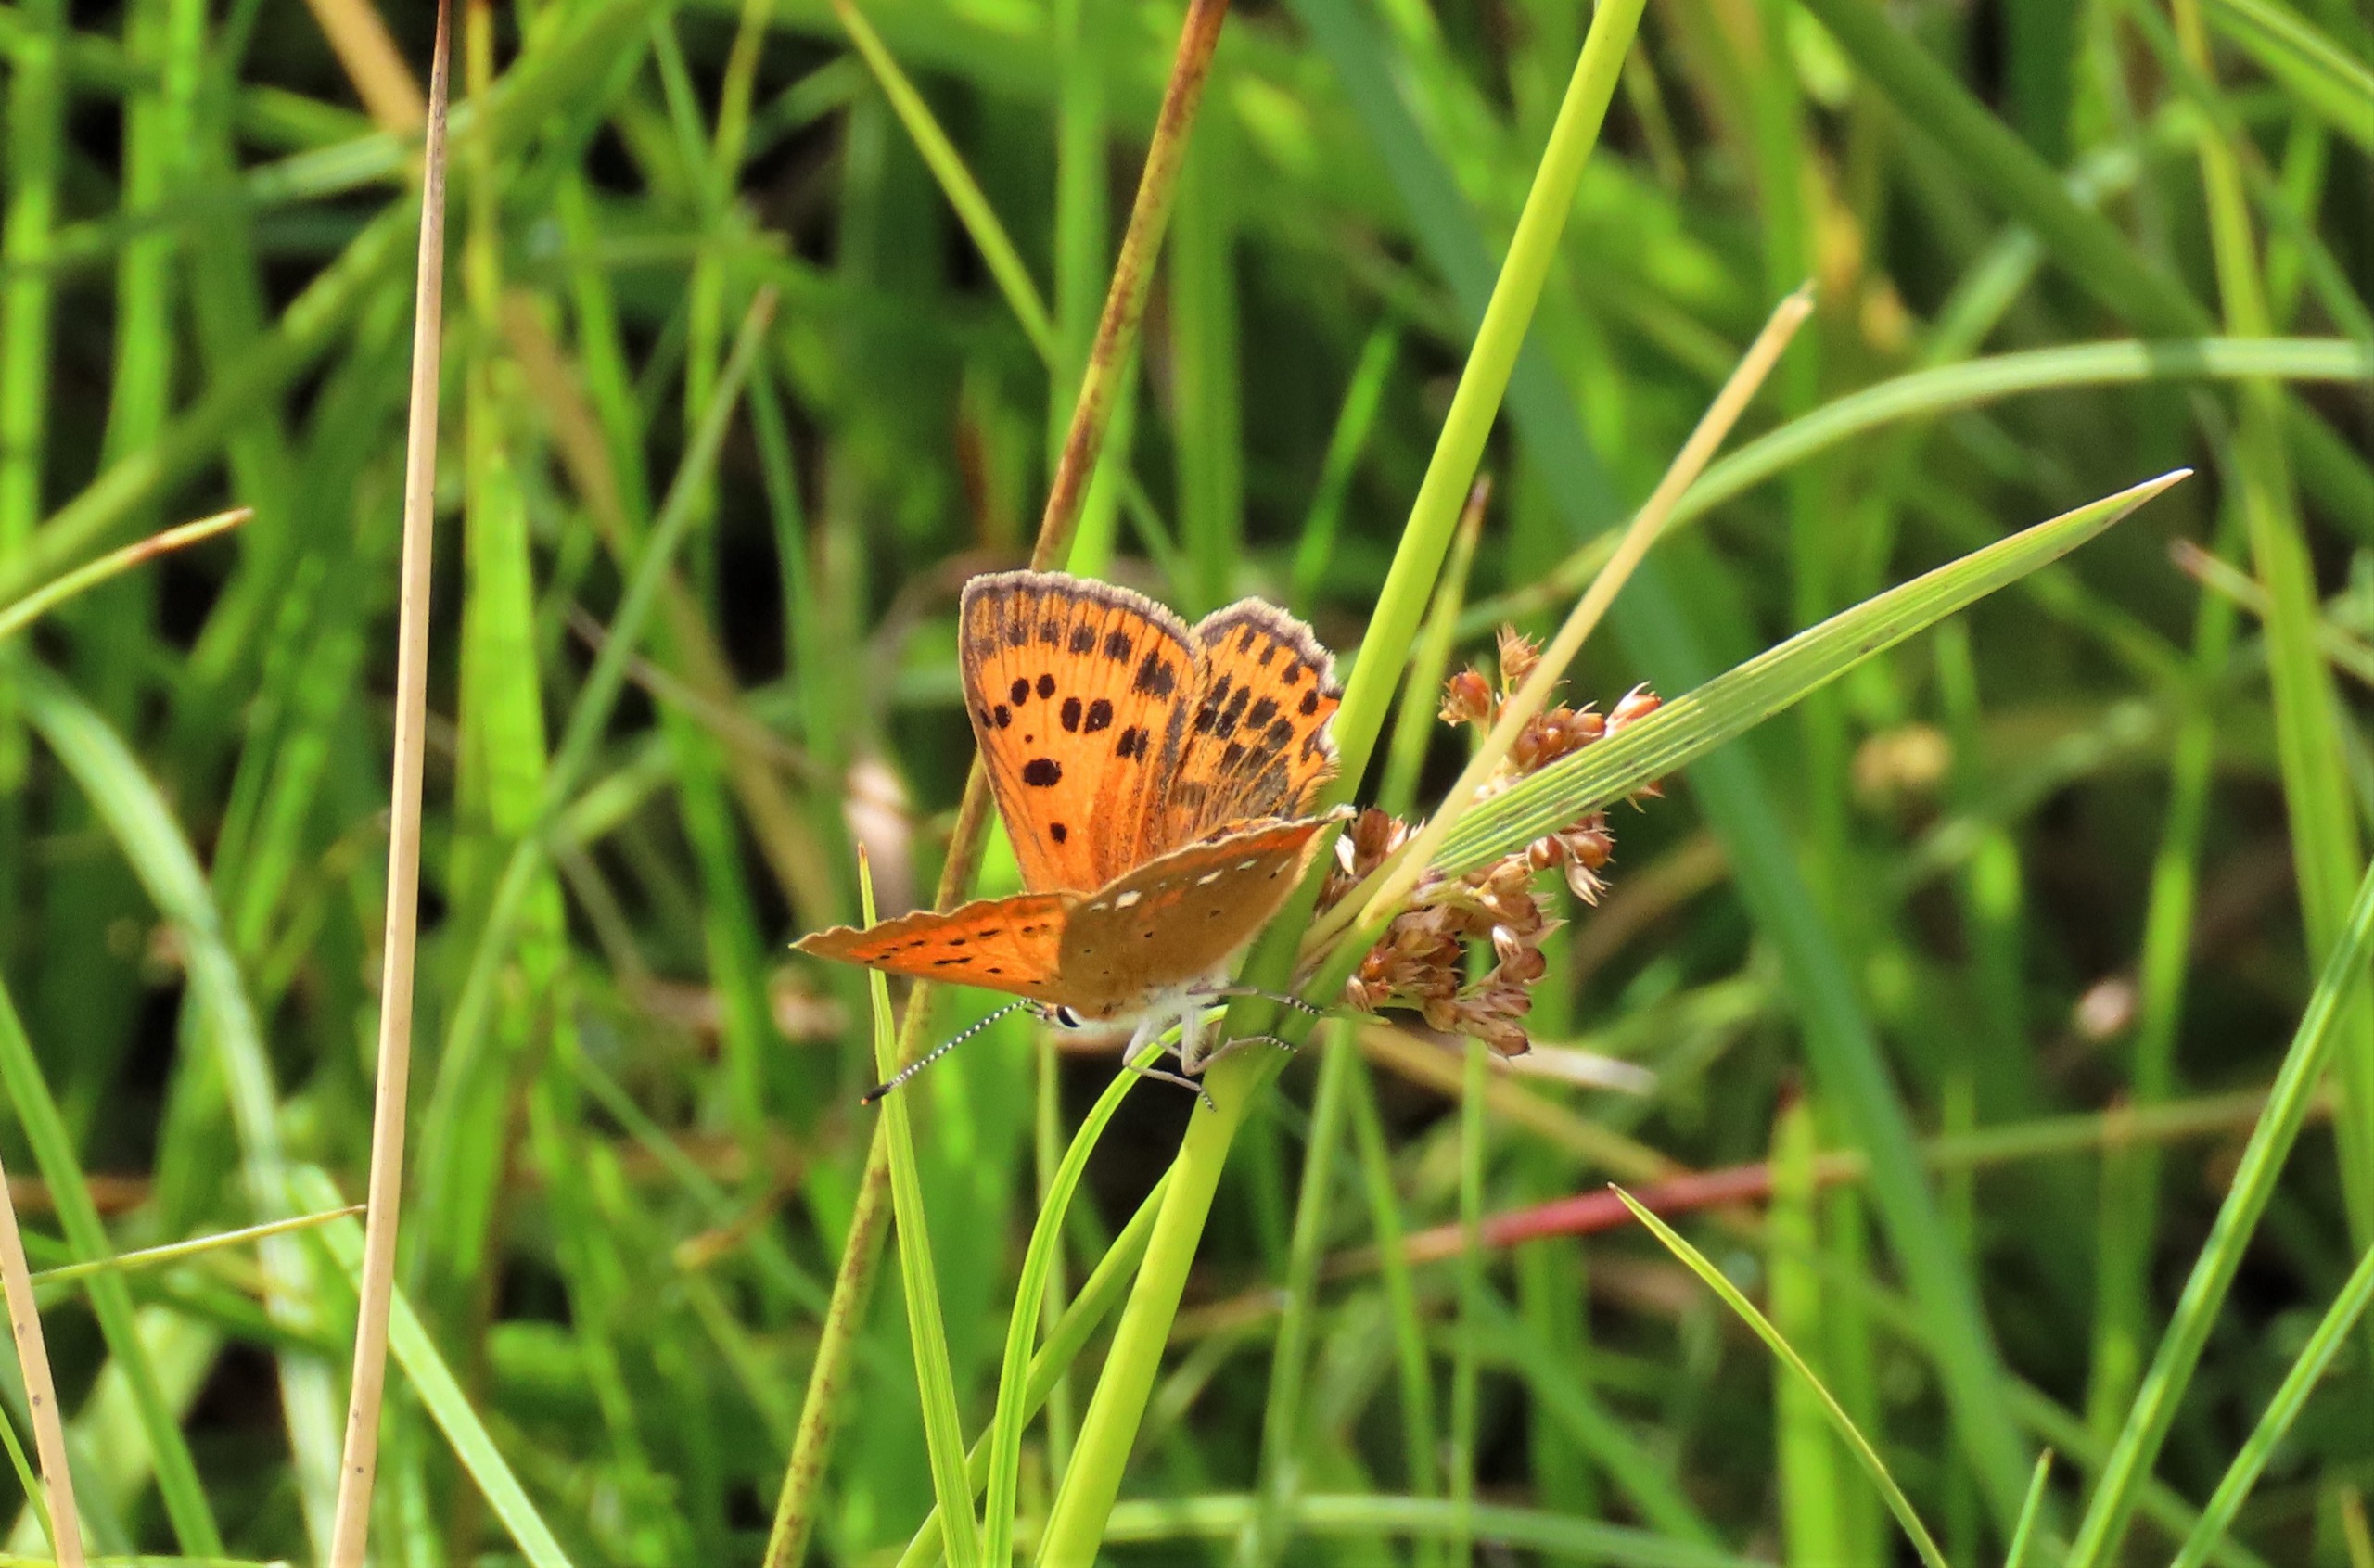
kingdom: Animalia
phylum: Arthropoda
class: Insecta
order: Lepidoptera
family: Lycaenidae
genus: Lycaena
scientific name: Lycaena virgaureae
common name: Dukatsommerfugl
